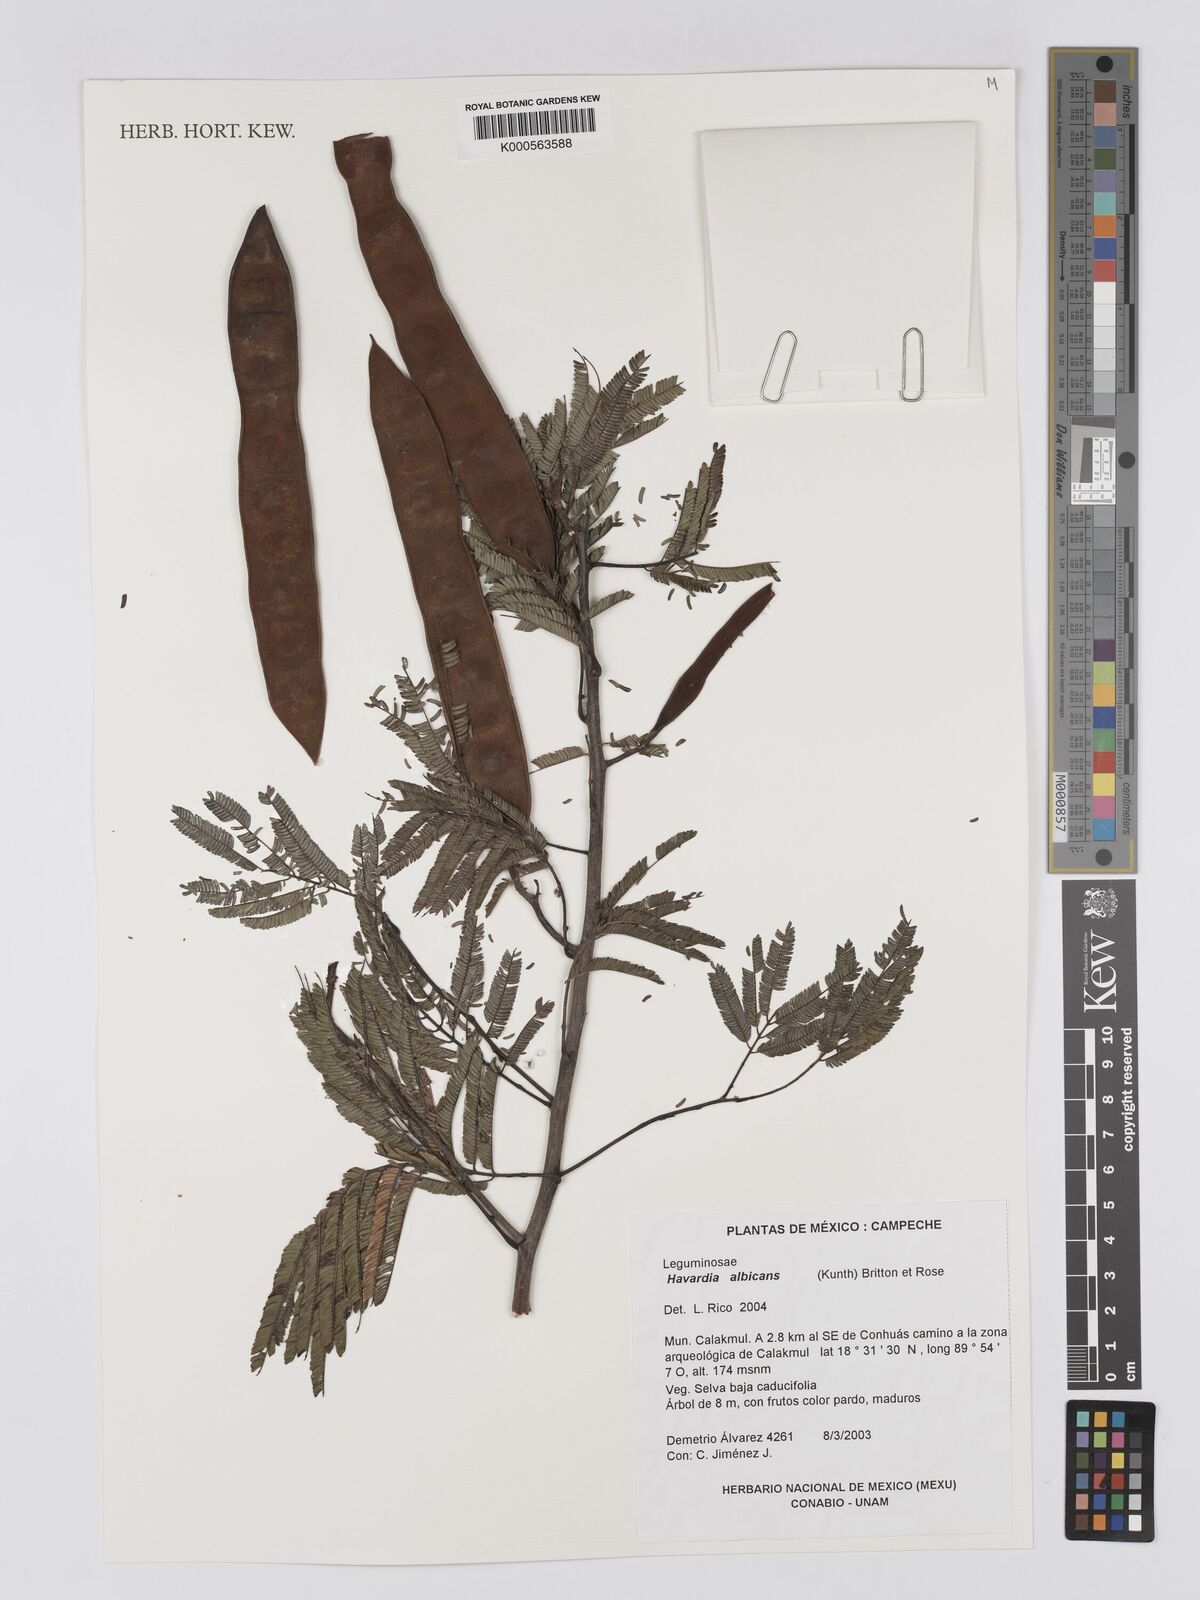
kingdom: Plantae
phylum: Tracheophyta
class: Magnoliopsida
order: Fabales
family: Fabaceae
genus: Havardia
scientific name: Havardia albicans
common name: Huisache
